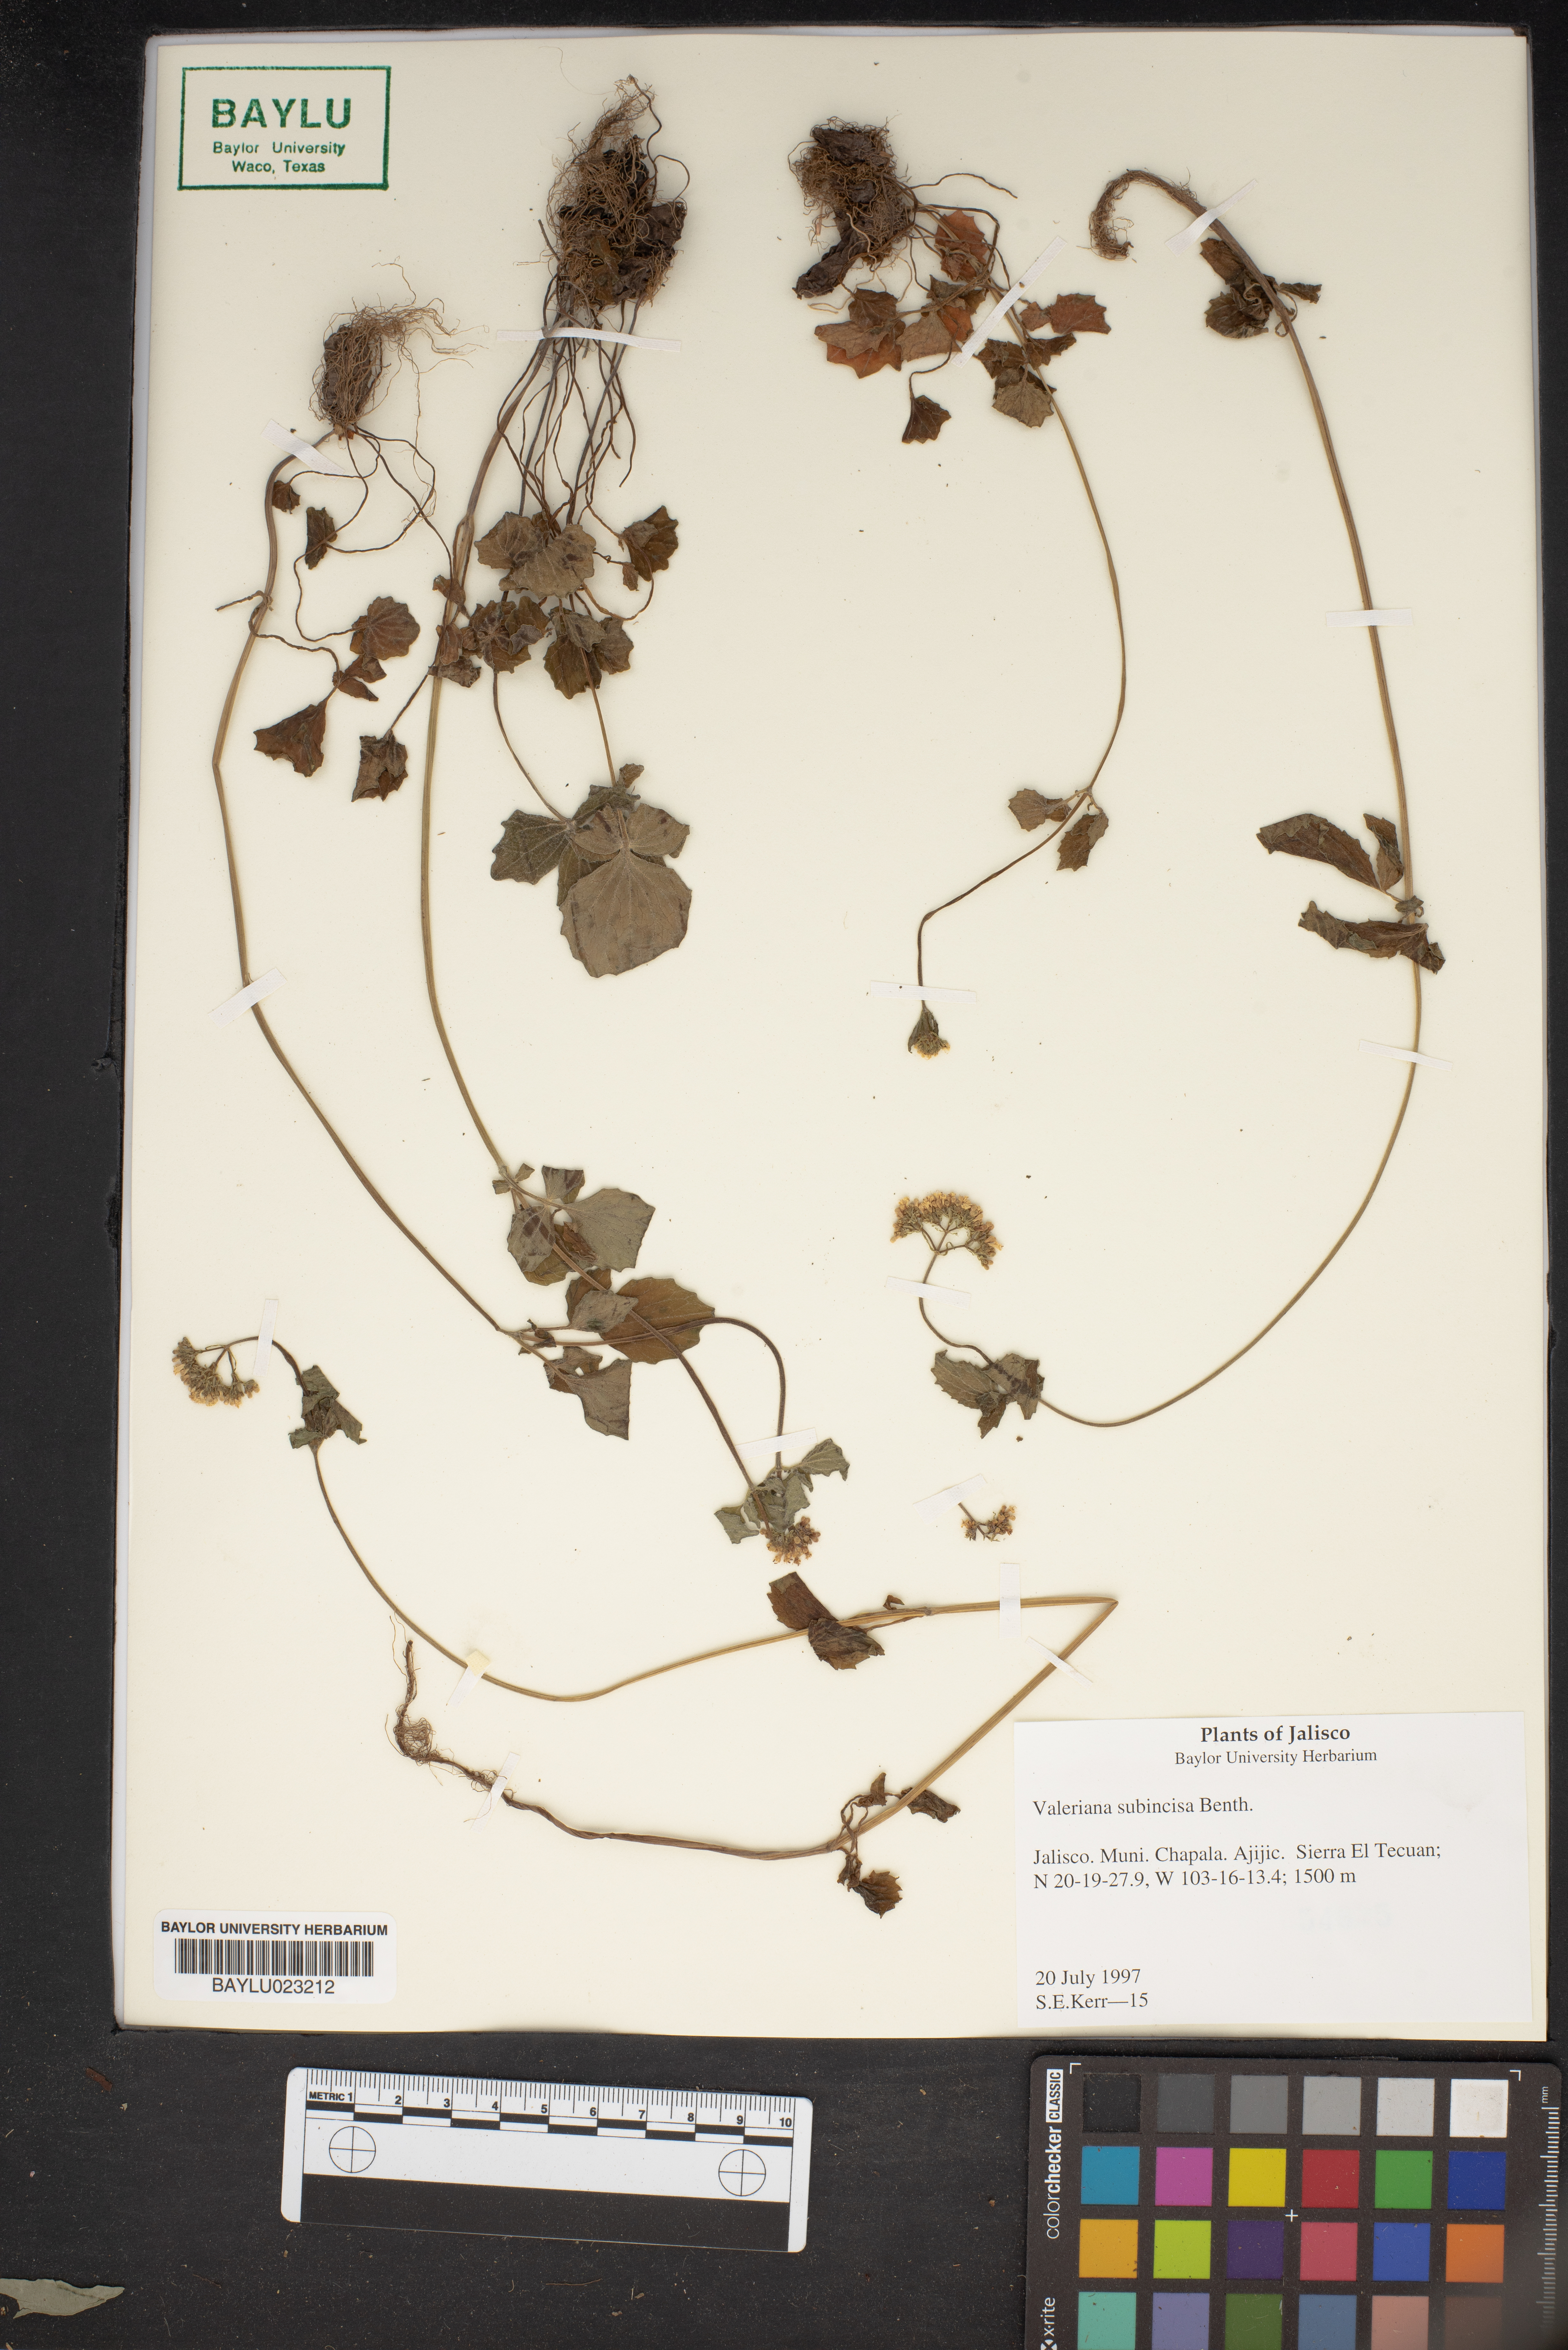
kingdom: Plantae
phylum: Tracheophyta
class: Magnoliopsida
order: Dipsacales
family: Caprifoliaceae
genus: Valeriana
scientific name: Valeriana subincisa
